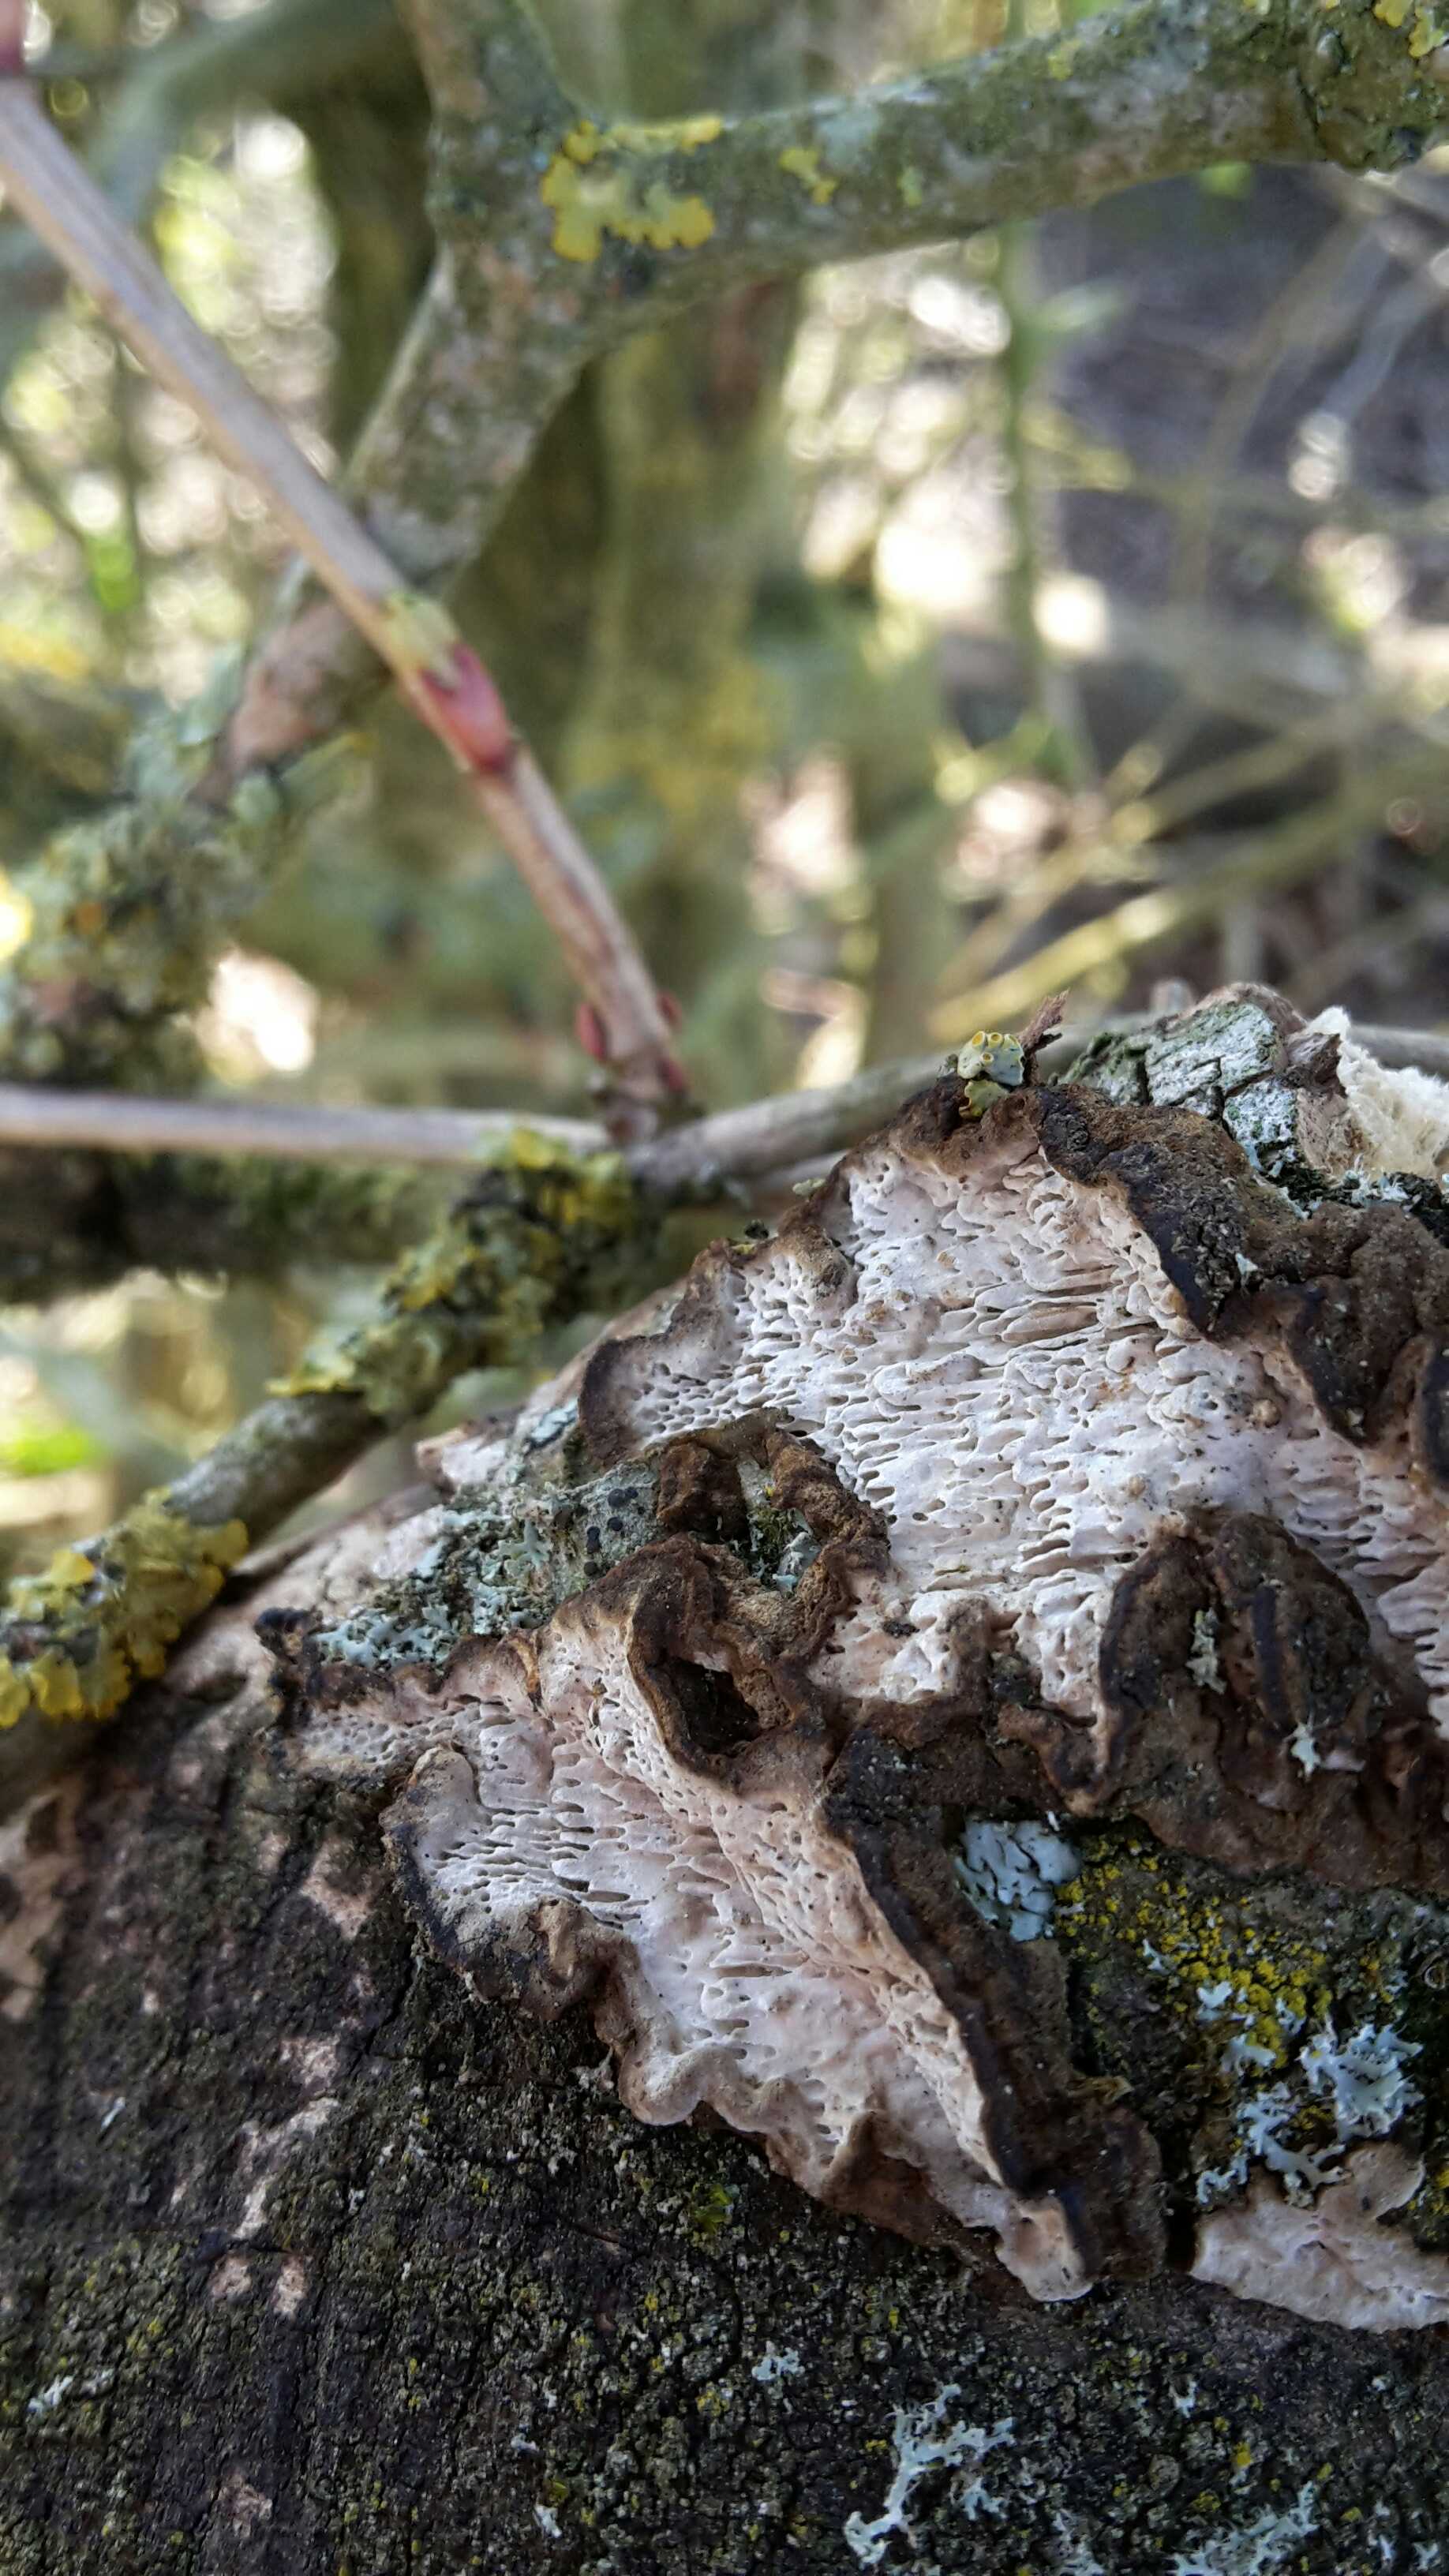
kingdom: Fungi
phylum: Basidiomycota
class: Agaricomycetes
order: Polyporales
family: Polyporaceae
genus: Podofomes
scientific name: Podofomes mollis
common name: blød begporesvamp
